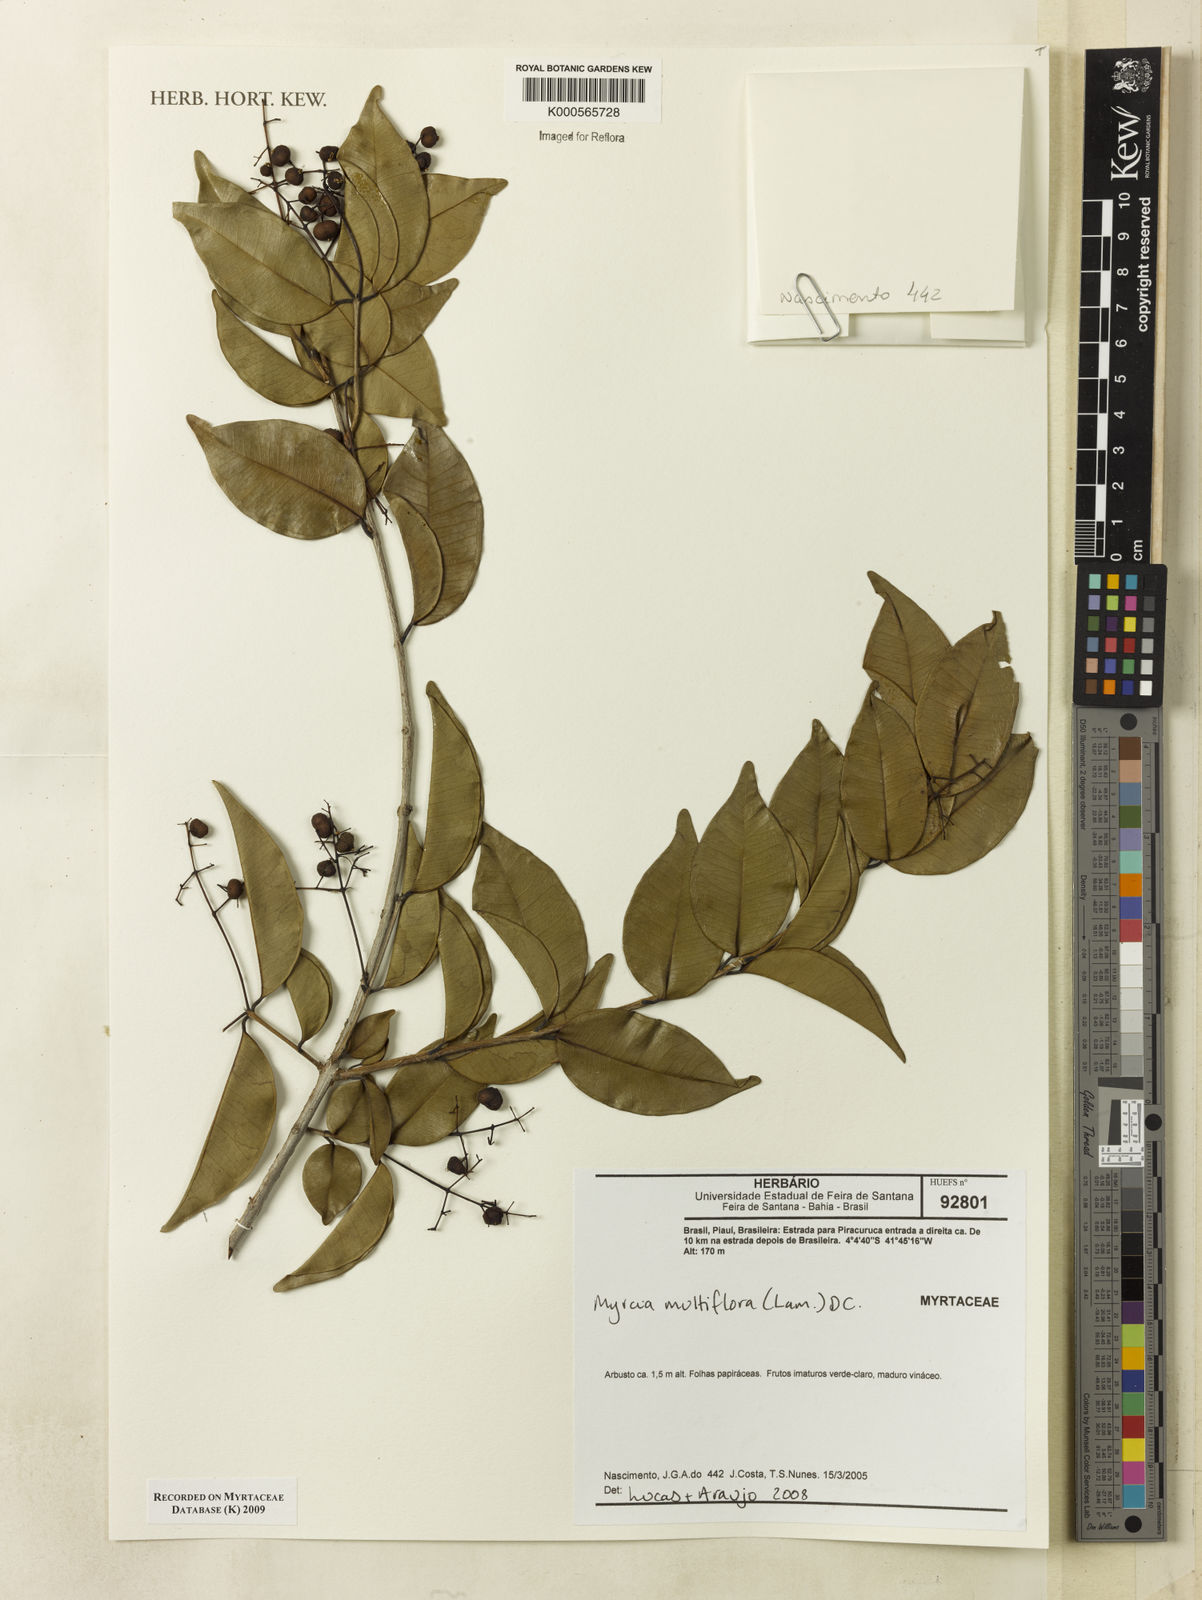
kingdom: Plantae
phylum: Tracheophyta
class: Magnoliopsida
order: Myrtales
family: Myrtaceae
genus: Myrcia
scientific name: Myrcia multiflora
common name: Pedra hume
